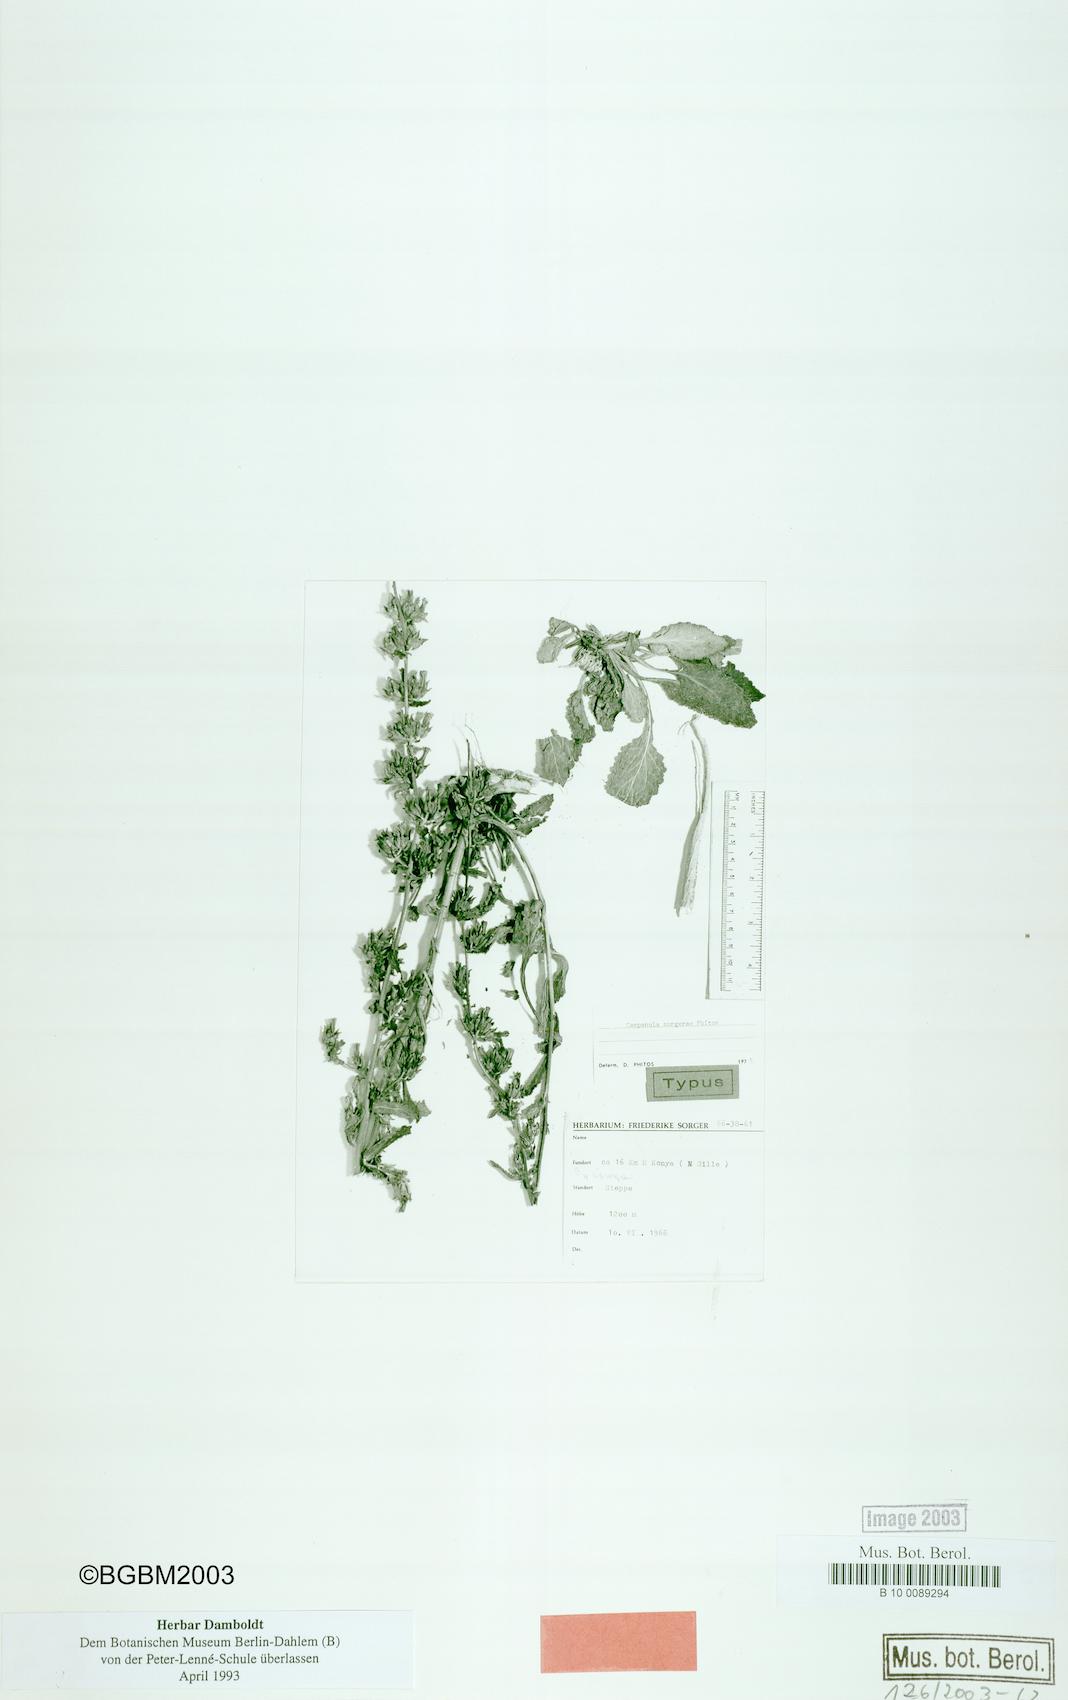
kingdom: Plantae
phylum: Tracheophyta
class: Magnoliopsida
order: Asterales
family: Campanulaceae
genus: Campanula
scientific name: Campanula
